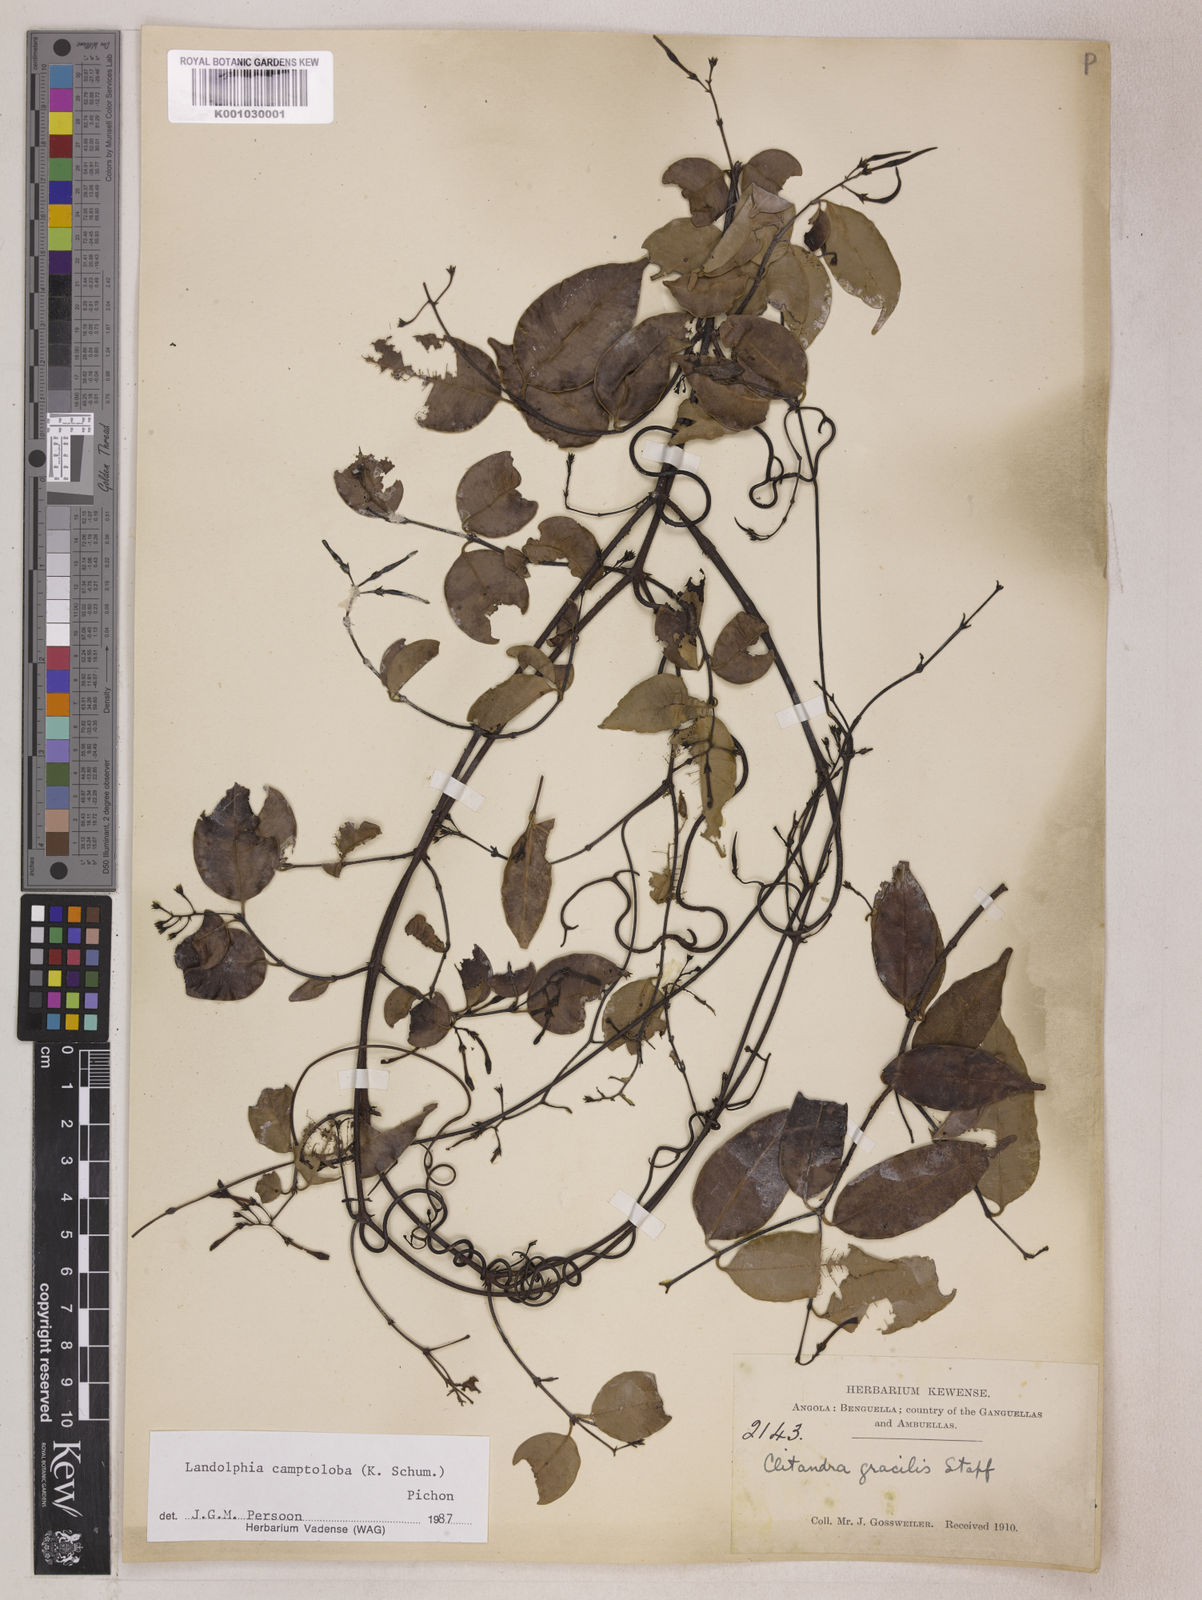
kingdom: Plantae
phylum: Tracheophyta
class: Magnoliopsida
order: Gentianales
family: Apocynaceae
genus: Landolphia
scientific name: Landolphia camptoloba
